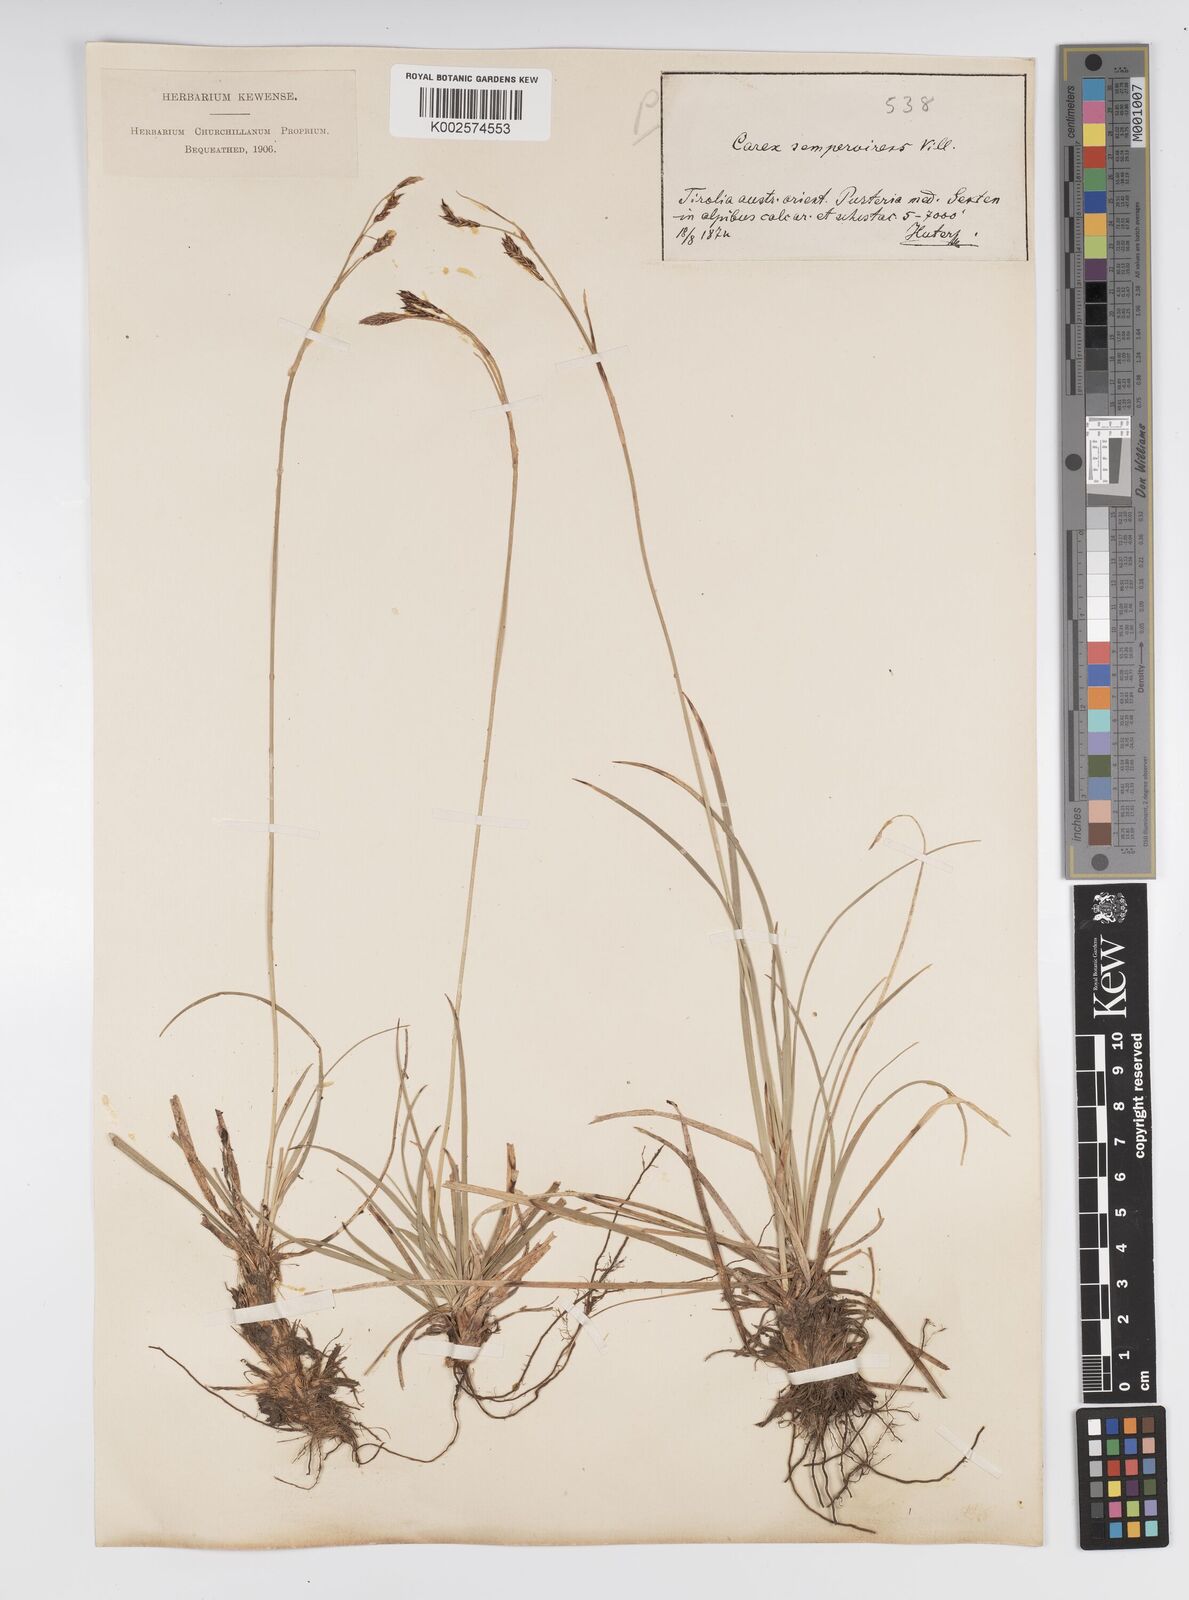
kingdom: Plantae
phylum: Tracheophyta
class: Liliopsida
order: Poales
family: Cyperaceae
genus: Carex
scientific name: Carex sempervirens
